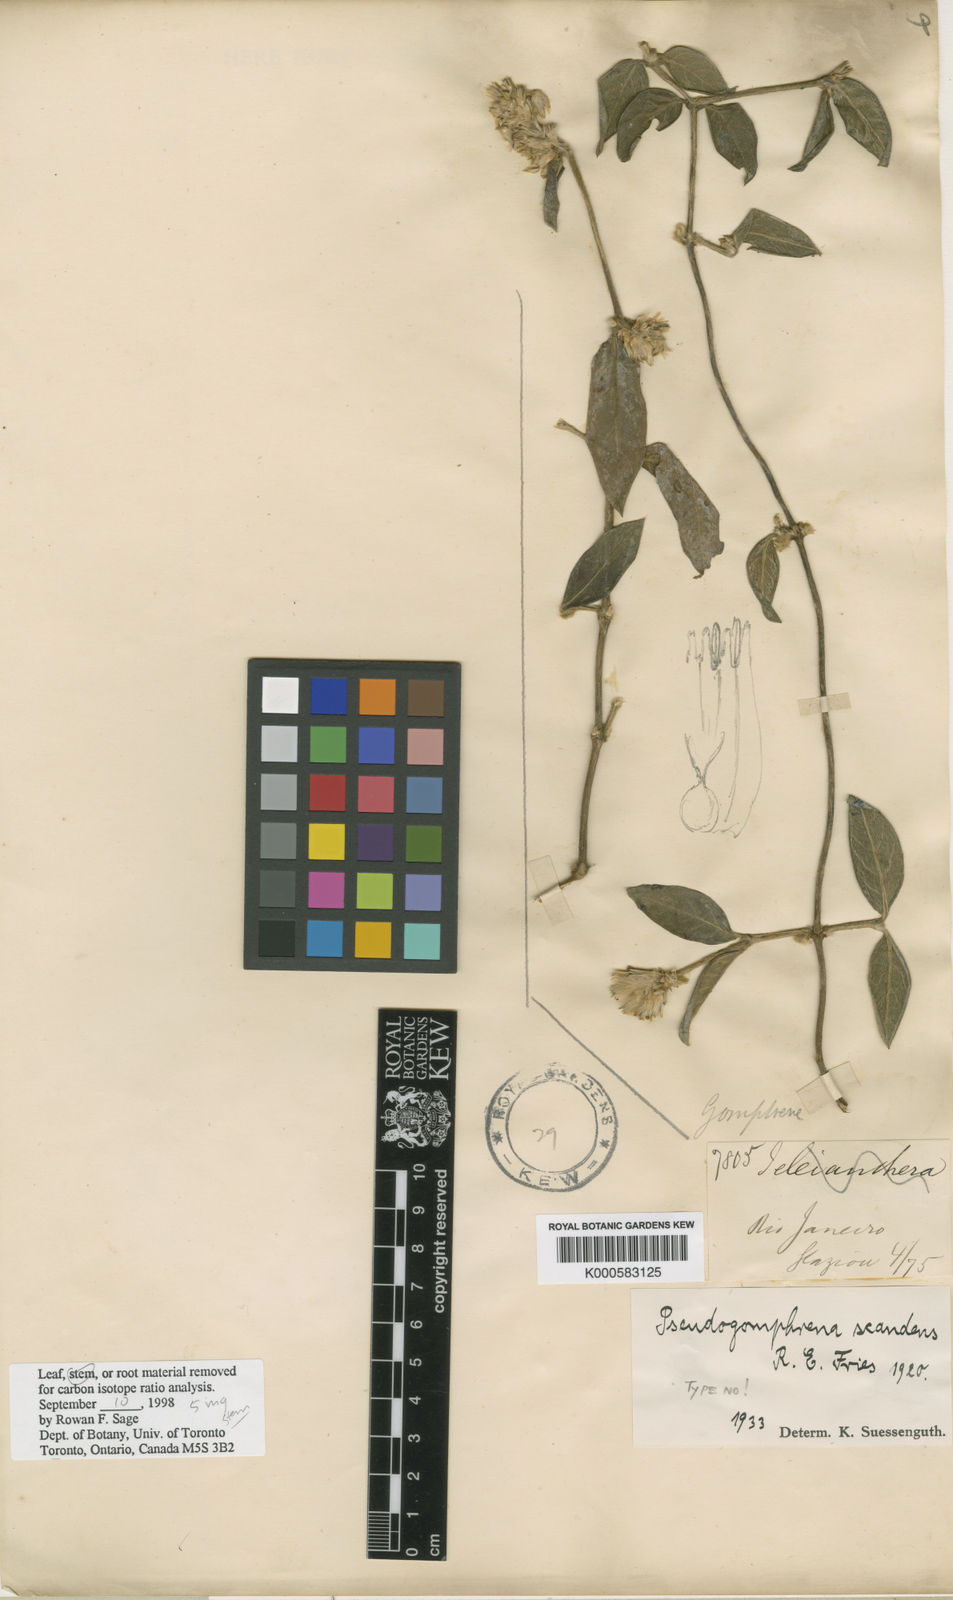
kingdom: Plantae
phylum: Tracheophyta
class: Magnoliopsida
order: Caryophyllales
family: Amaranthaceae
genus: Gomphrena
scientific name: Gomphrena scandens
